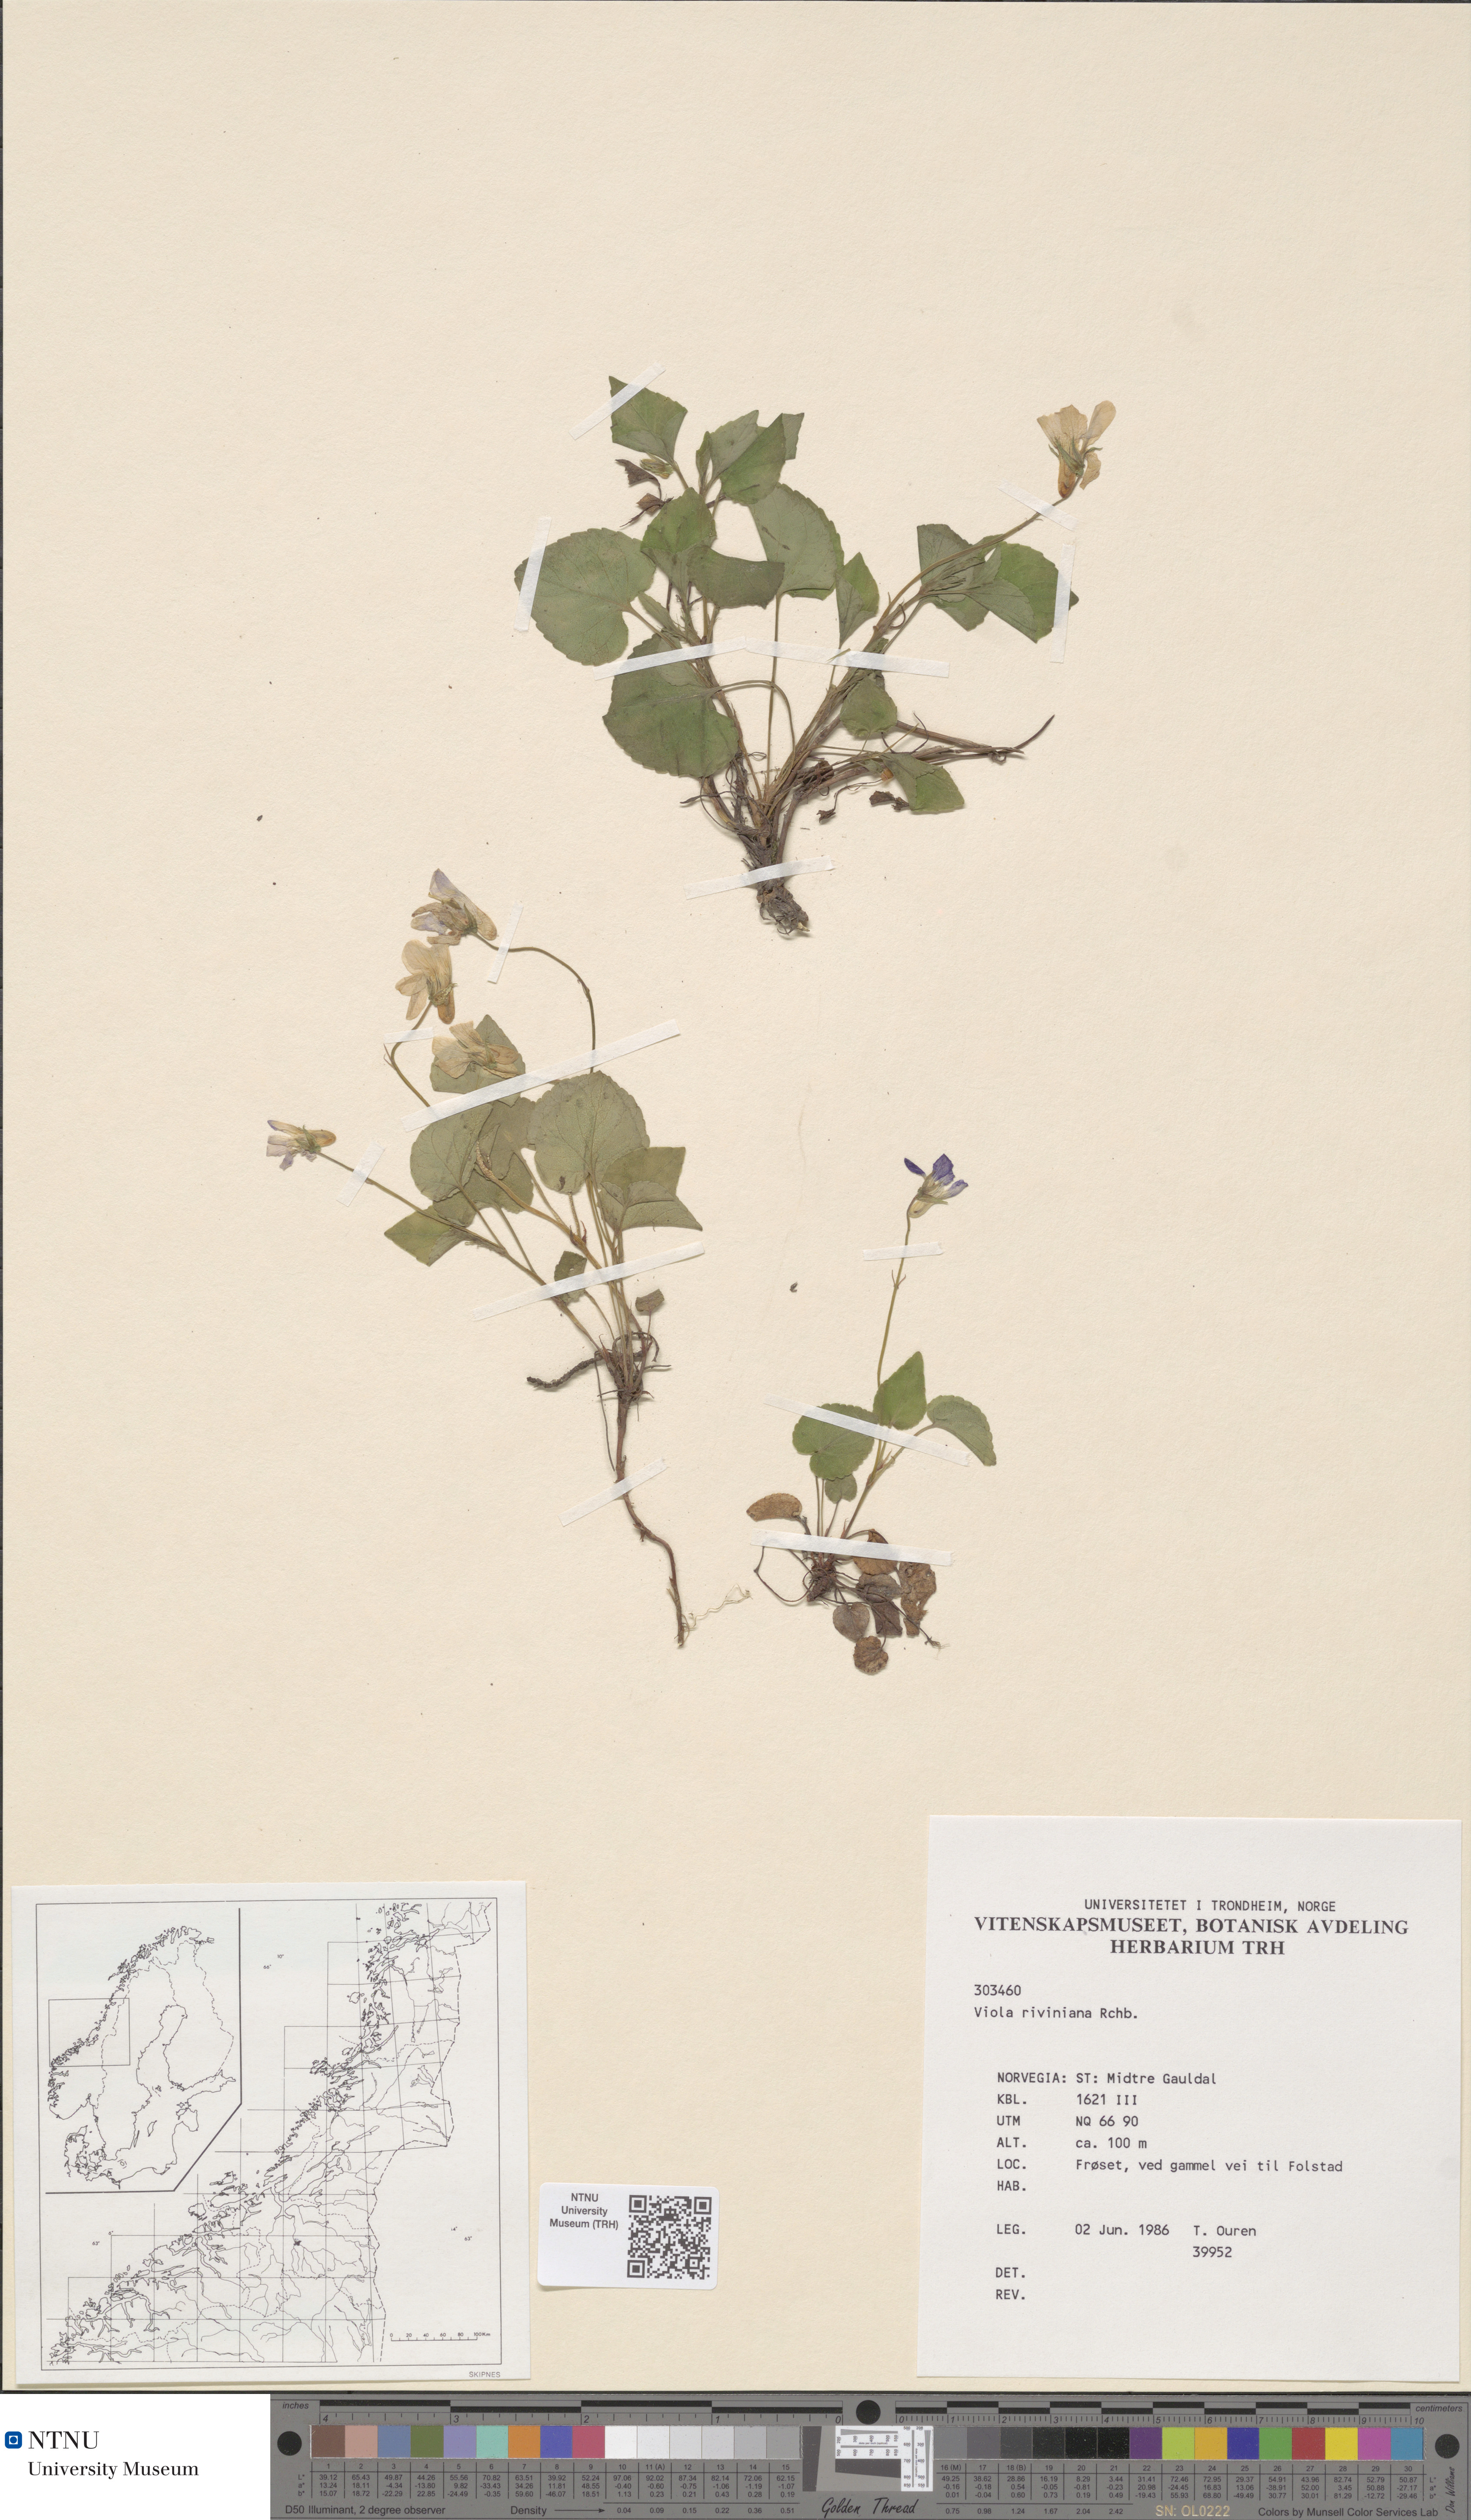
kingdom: Plantae
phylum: Tracheophyta
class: Magnoliopsida
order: Malpighiales
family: Violaceae
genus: Viola
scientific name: Viola riviniana
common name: Common dog-violet
